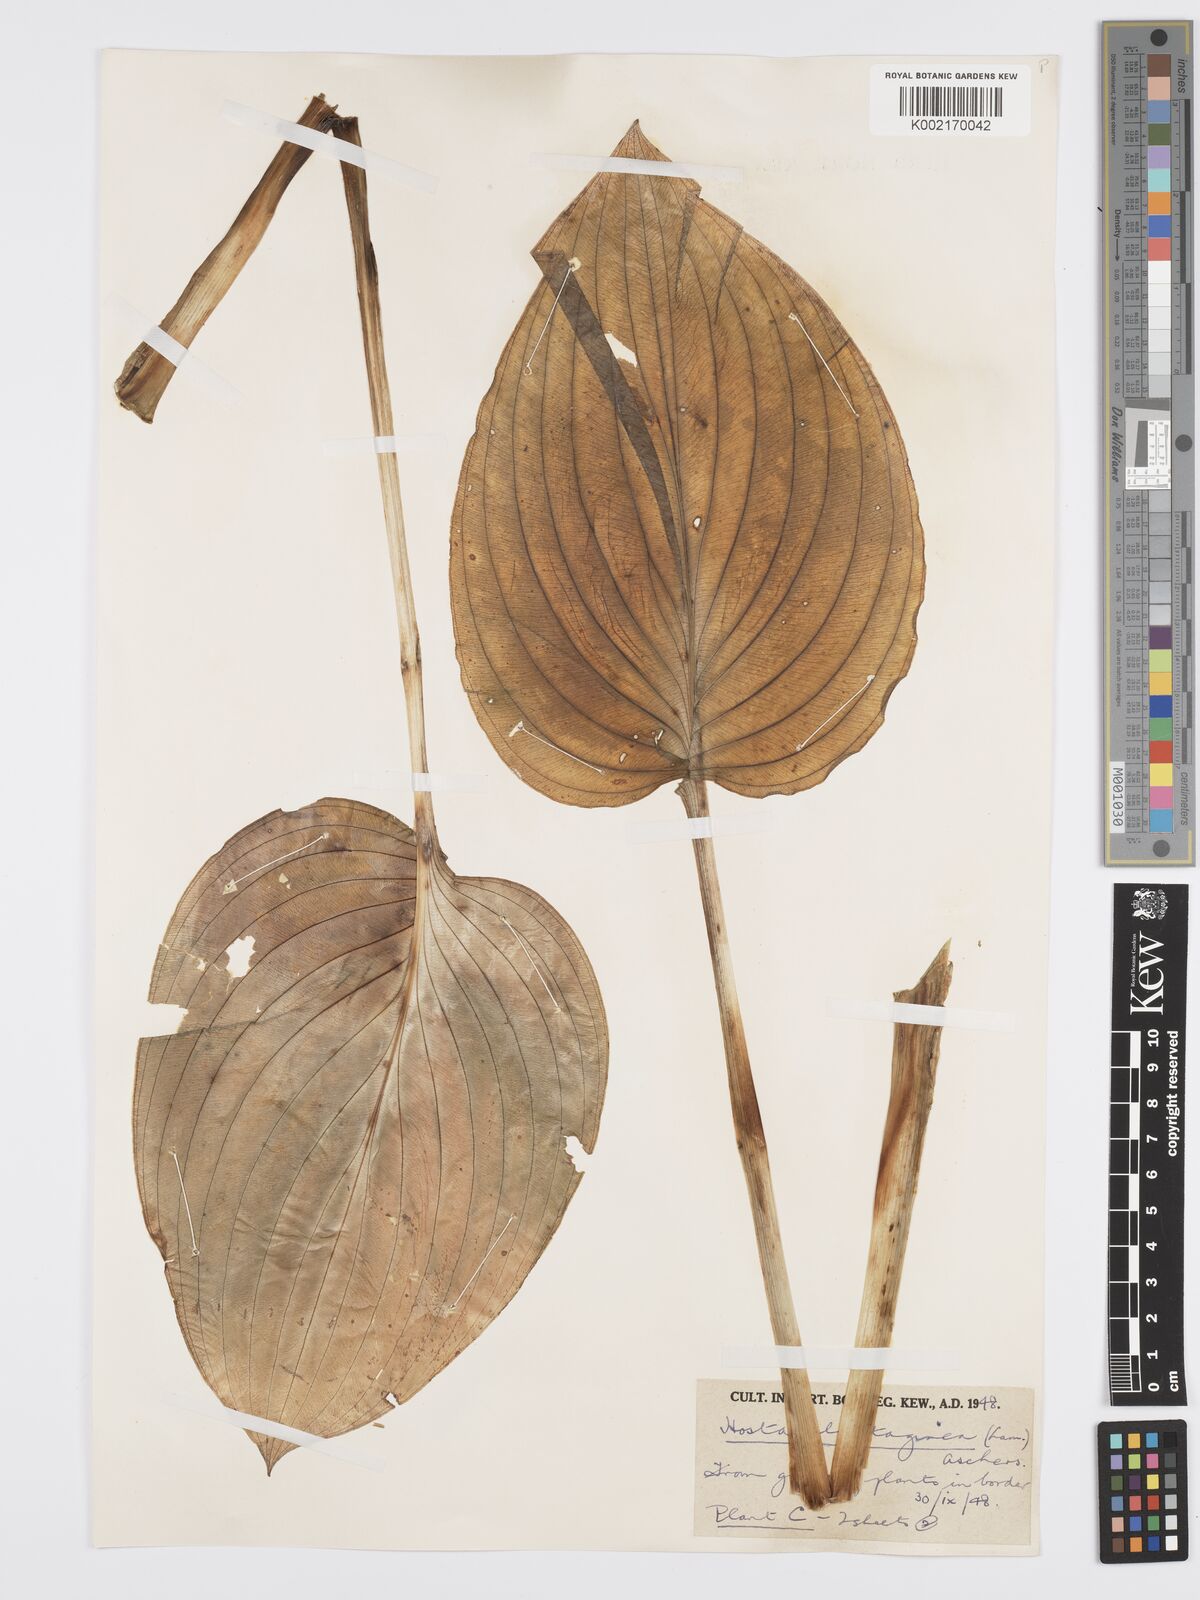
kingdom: Plantae
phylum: Tracheophyta
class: Liliopsida
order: Asparagales
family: Asparagaceae
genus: Hosta
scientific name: Hosta plantaginea
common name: August-lily
